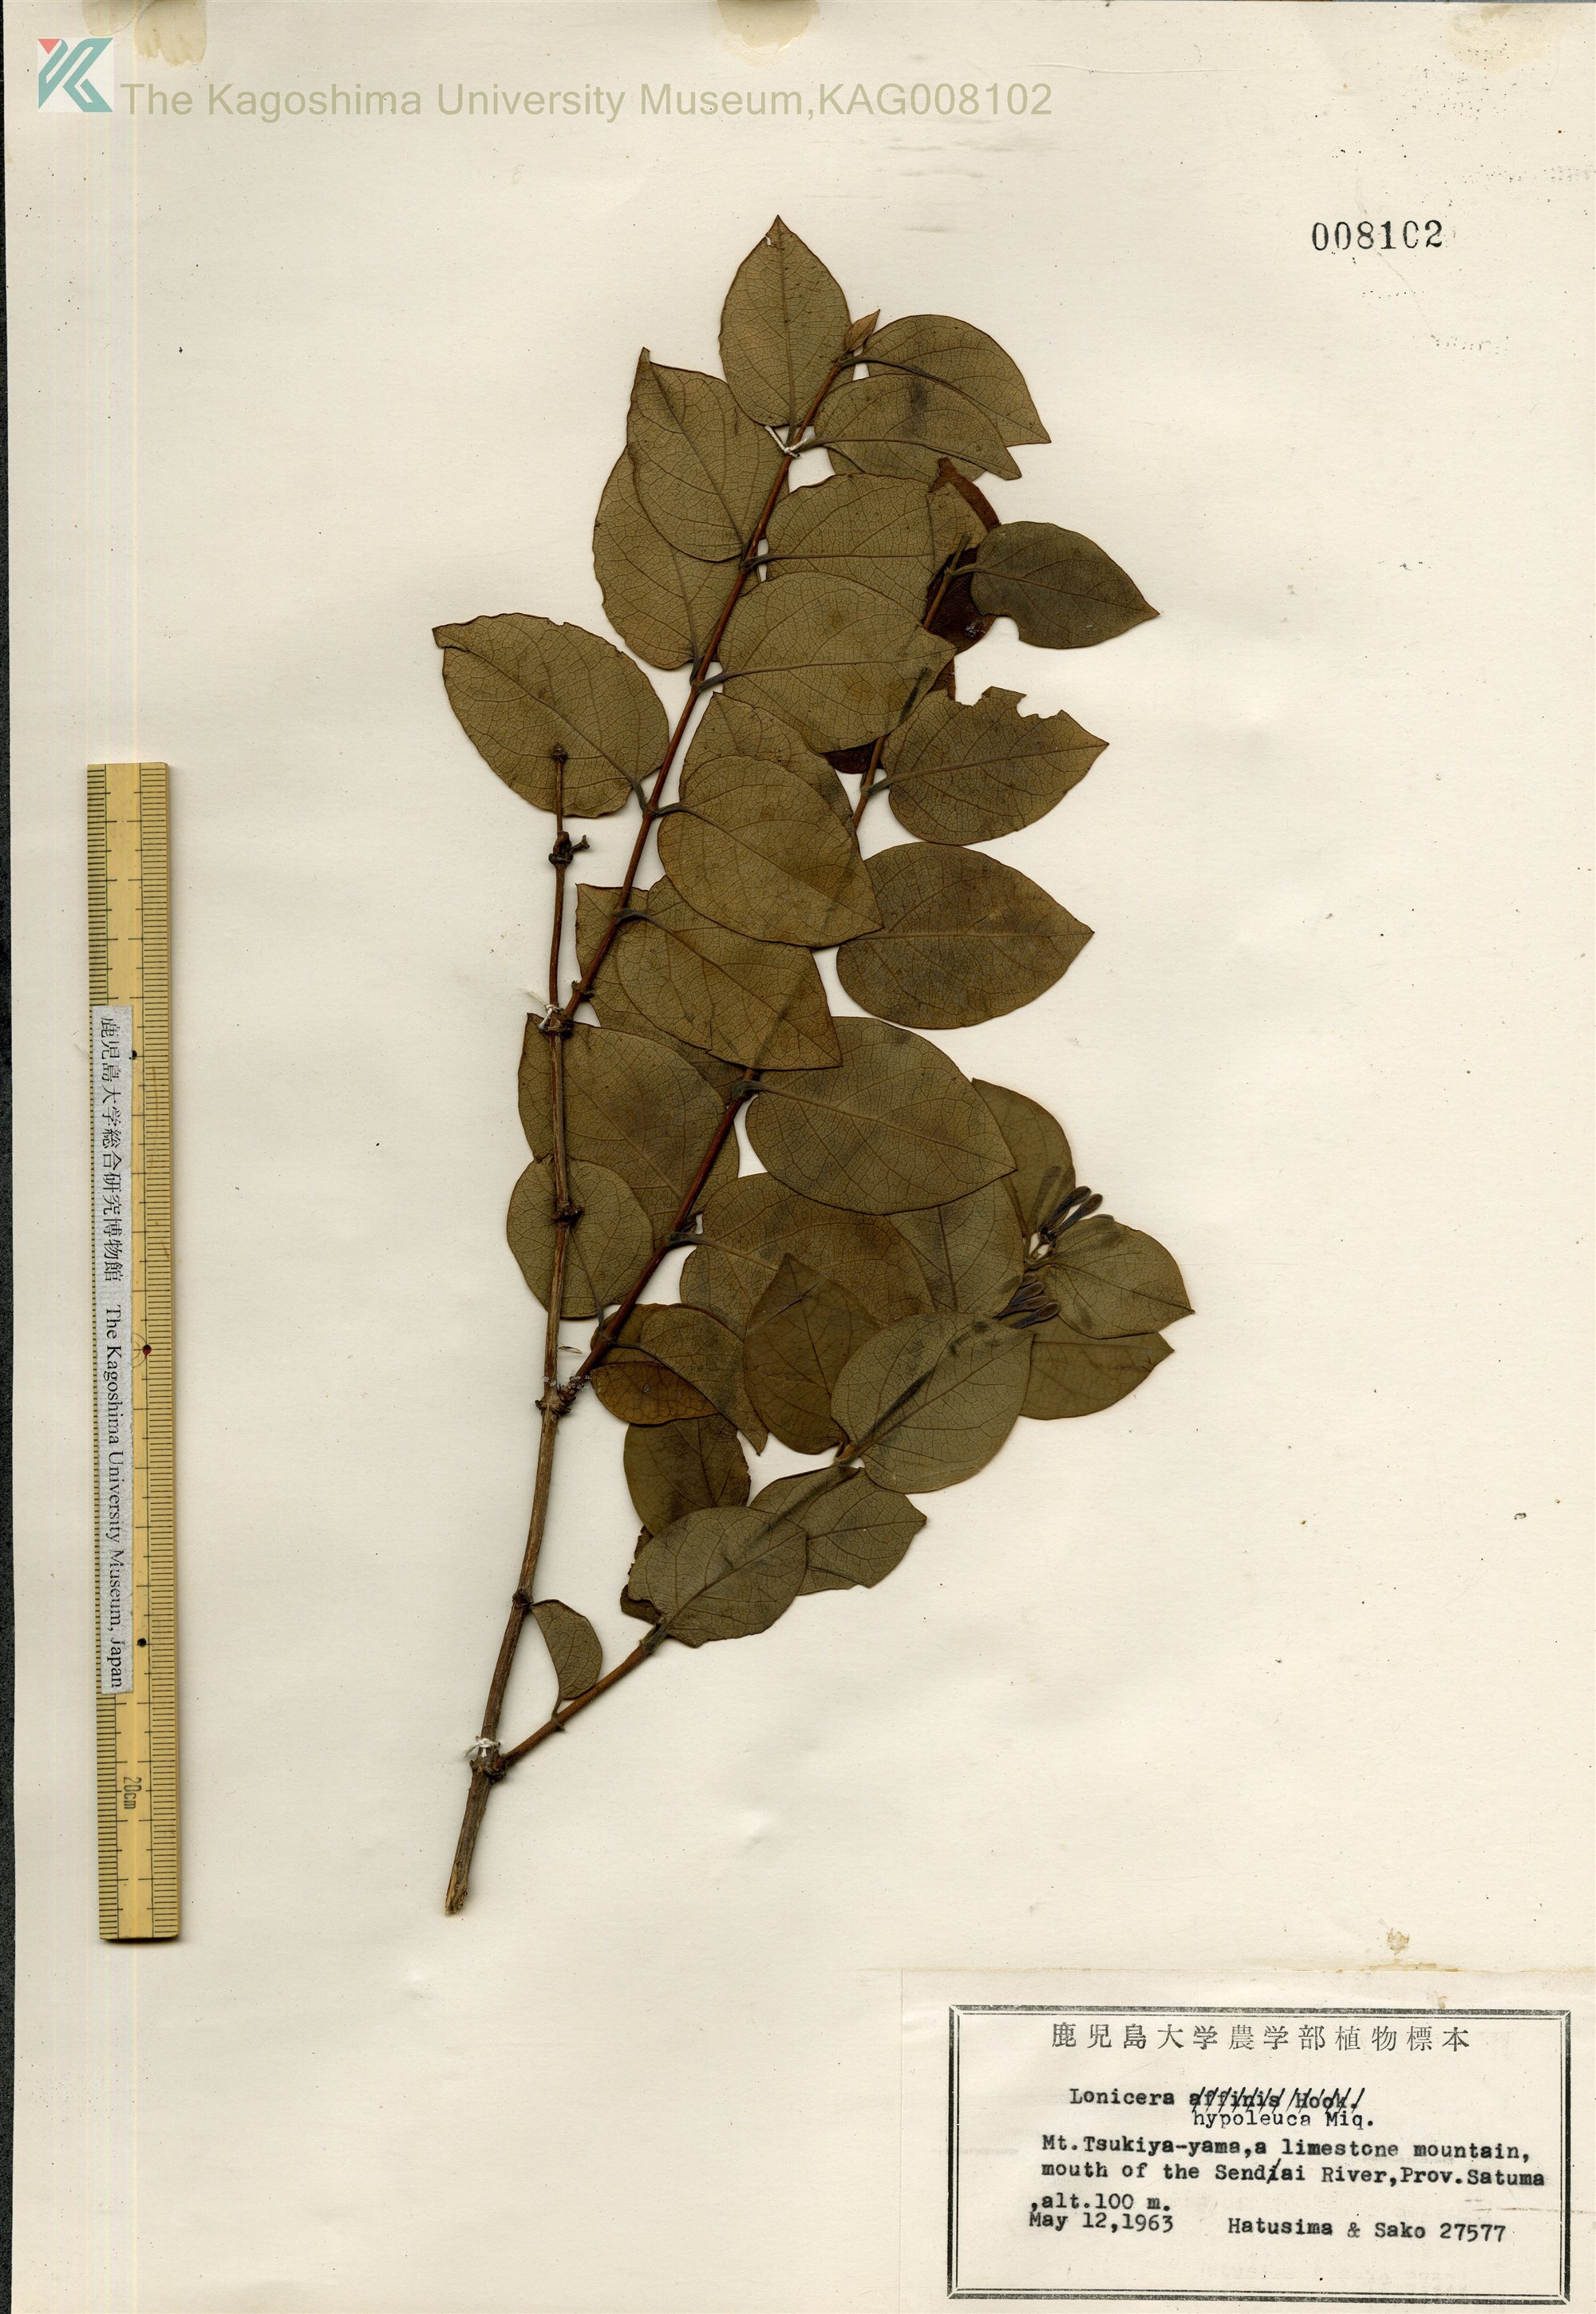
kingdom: Plantae
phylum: Tracheophyta
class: Magnoliopsida
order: Dipsacales
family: Caprifoliaceae
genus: Lonicera
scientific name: Lonicera hypoglauca
